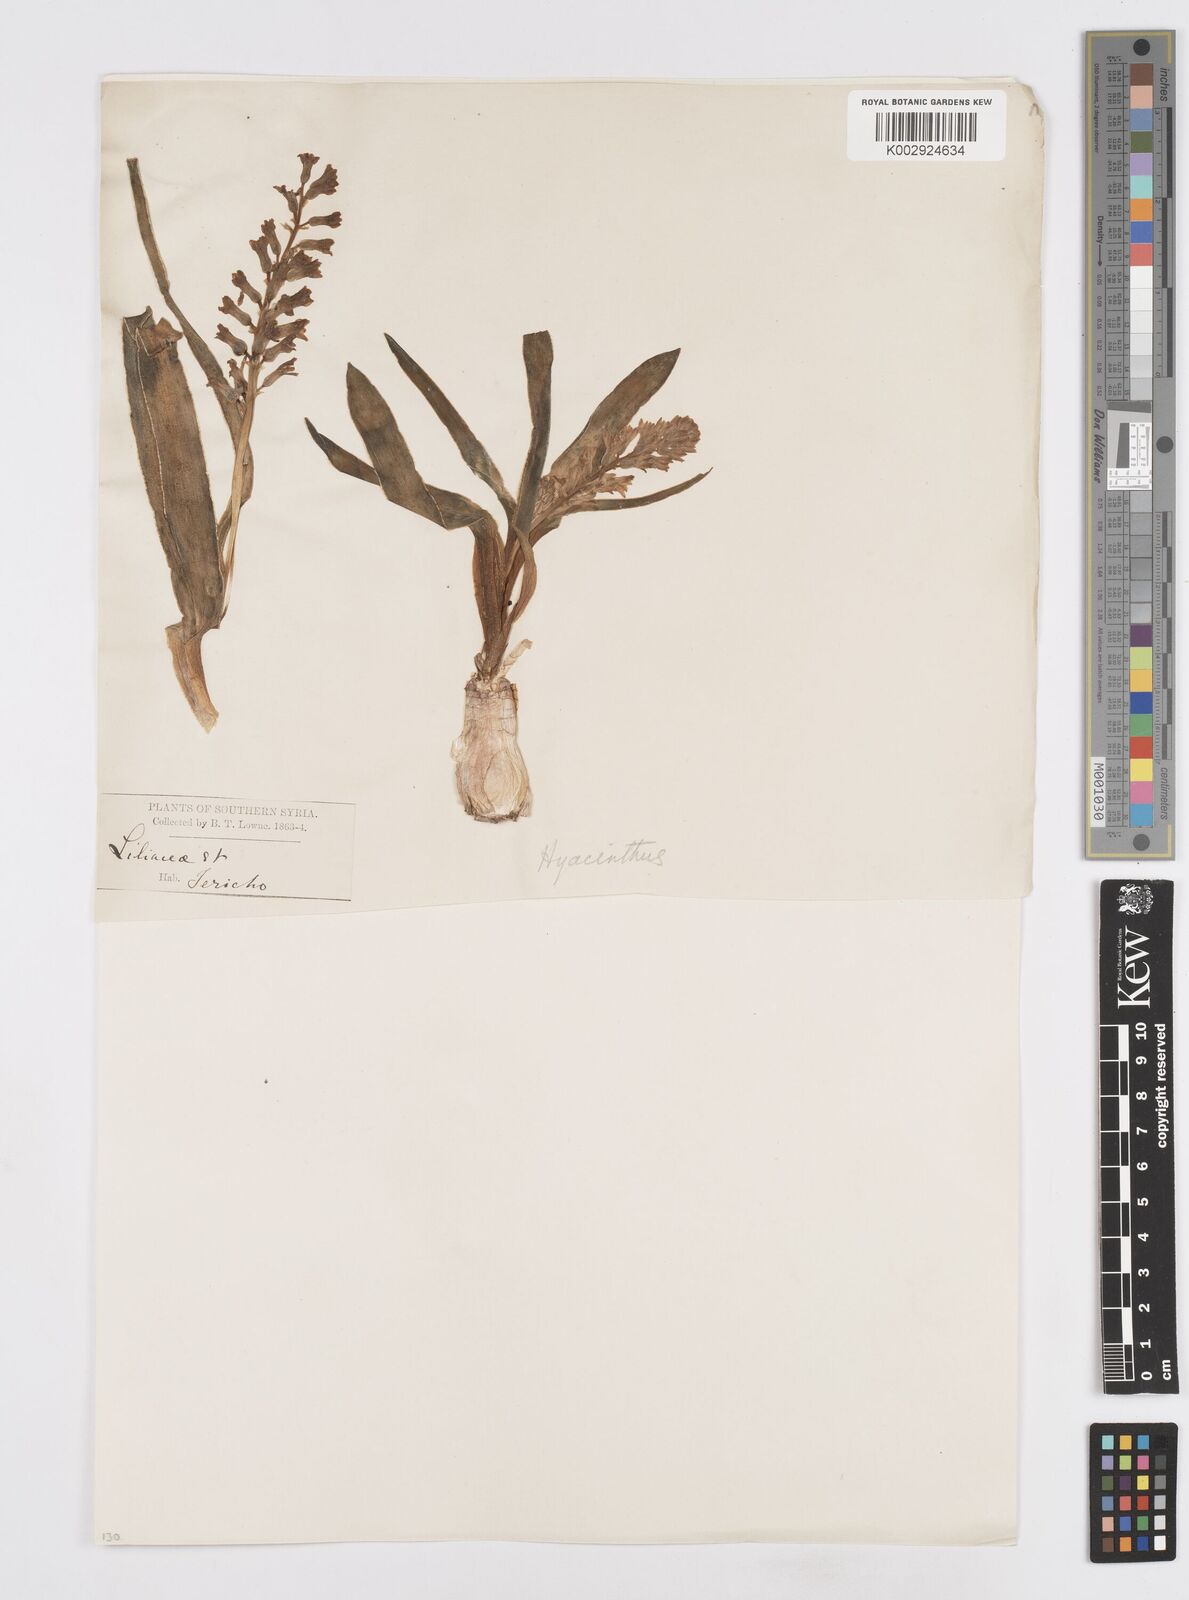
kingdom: Plantae
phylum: Tracheophyta
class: Liliopsida
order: Asparagales
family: Asparagaceae
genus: Bellevalia
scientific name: Bellevalia desertorum
